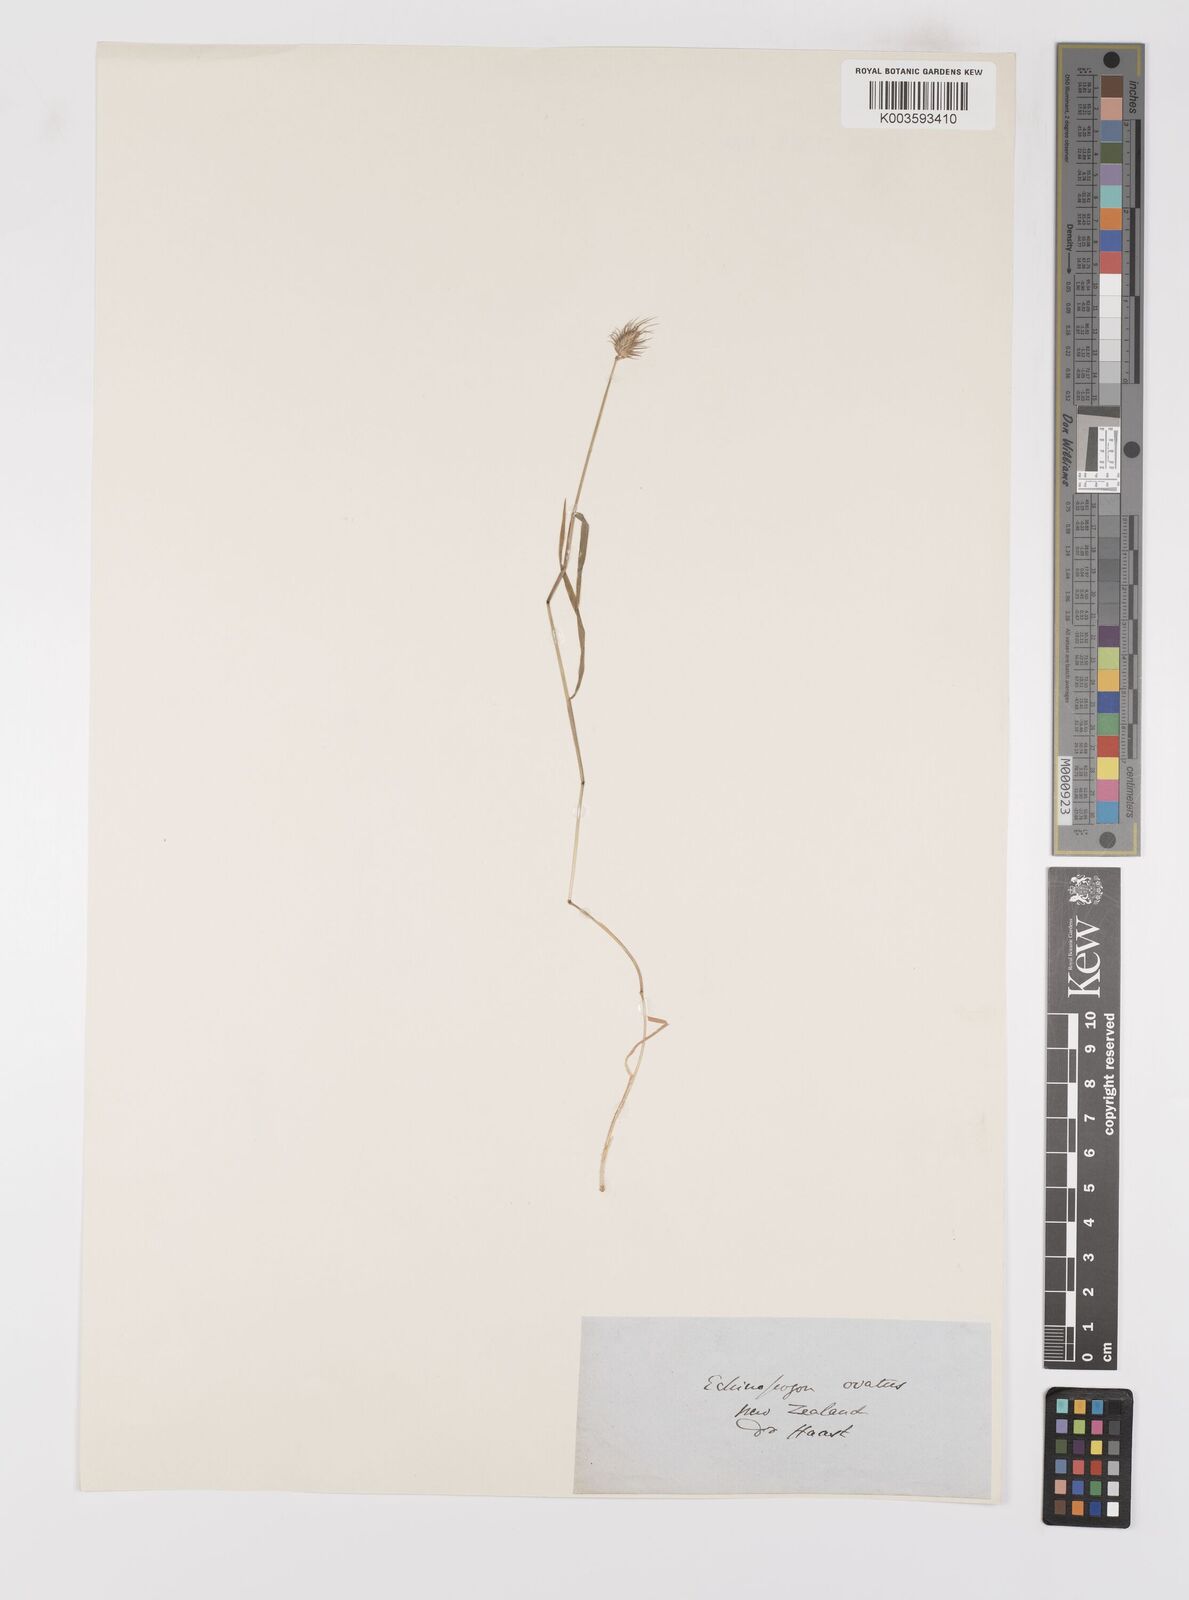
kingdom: Plantae
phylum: Tracheophyta
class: Liliopsida
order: Poales
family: Poaceae
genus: Echinopogon
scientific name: Echinopogon ovatus
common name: Hedgehog-grass
